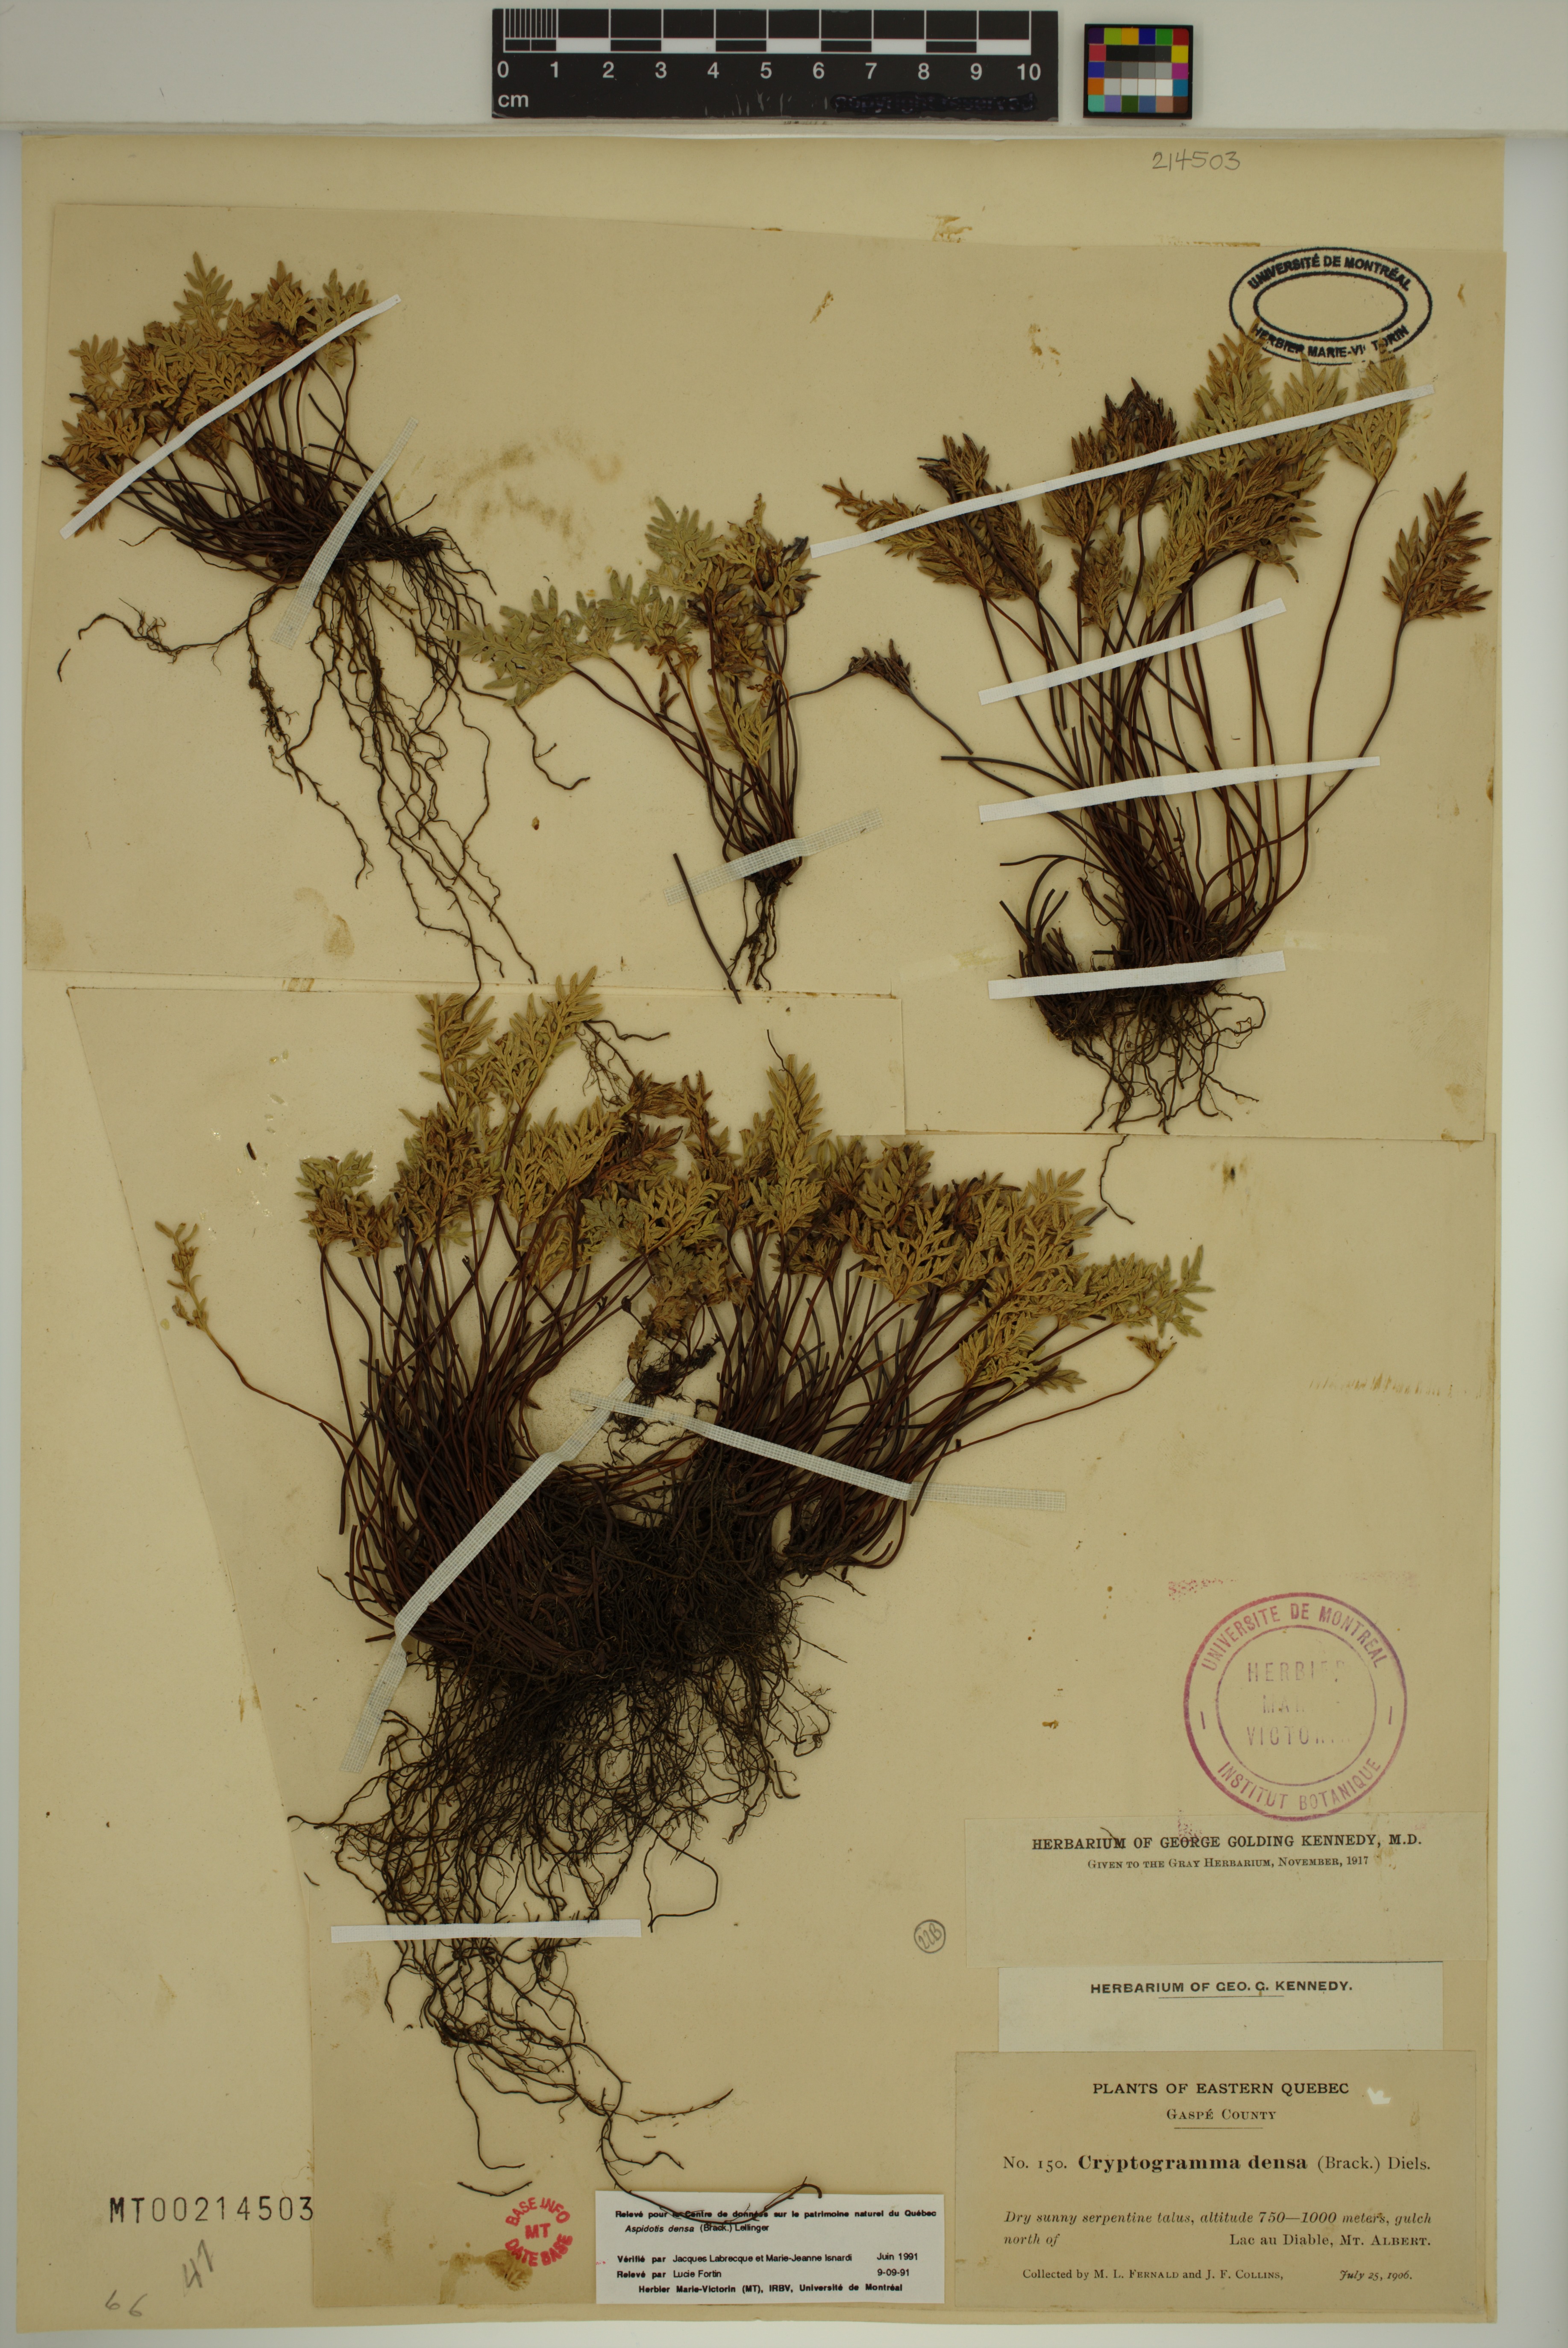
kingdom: Plantae
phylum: Tracheophyta
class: Polypodiopsida
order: Polypodiales
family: Pteridaceae
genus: Aspidotis
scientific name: Aspidotis densa
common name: Indian's dream
